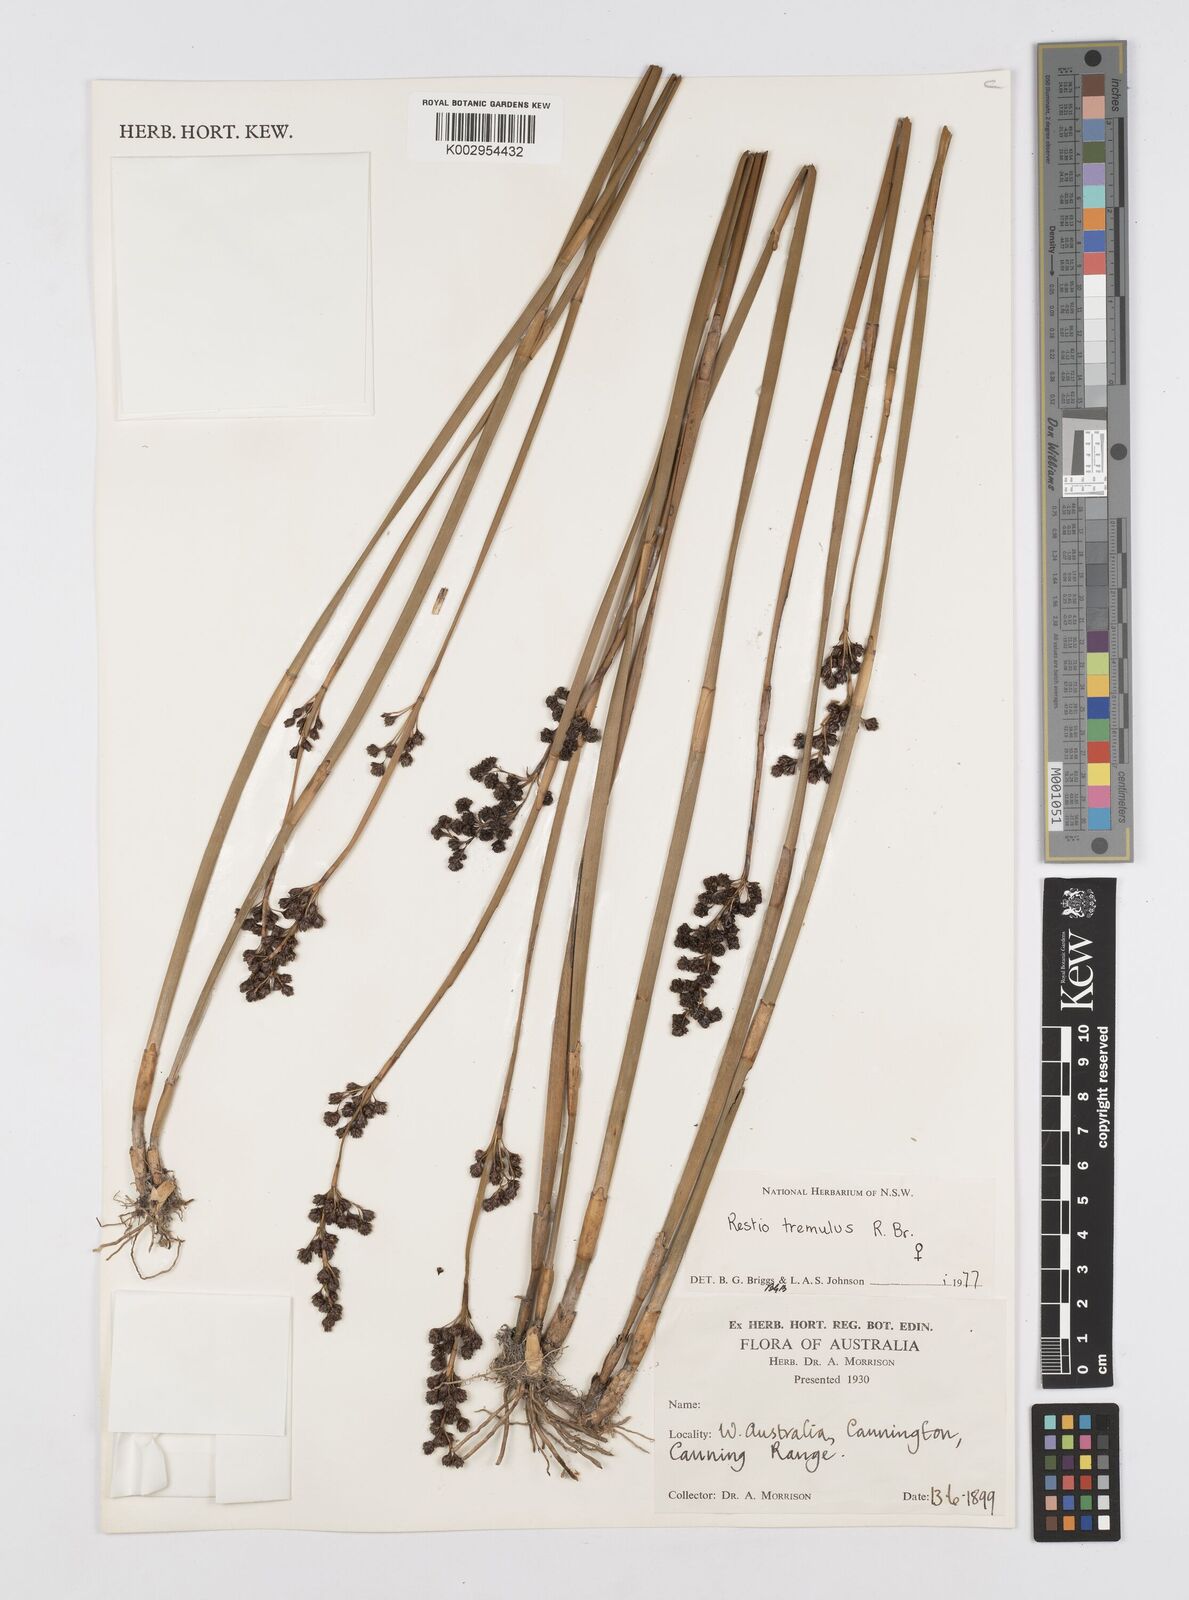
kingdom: Plantae
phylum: Tracheophyta
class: Liliopsida
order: Poales
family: Restionaceae
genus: Tremulina
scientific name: Tremulina tremula
